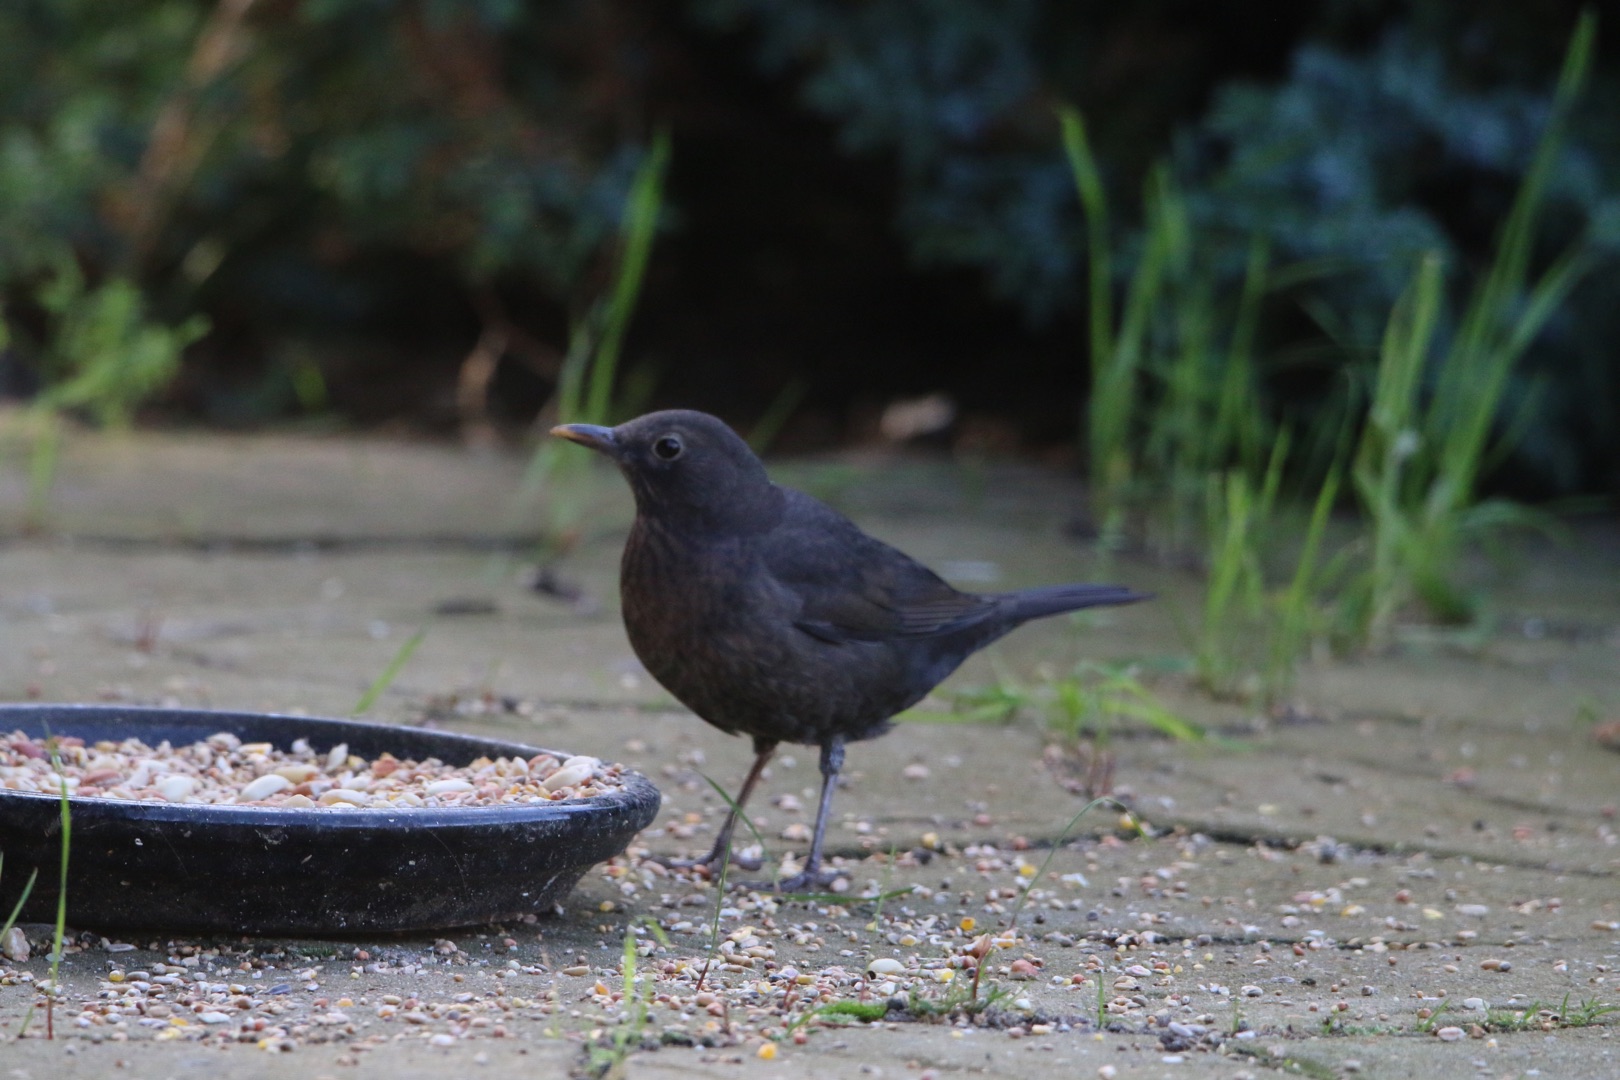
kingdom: Animalia
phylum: Chordata
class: Aves
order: Passeriformes
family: Turdidae
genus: Turdus
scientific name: Turdus merula
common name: Solsort
